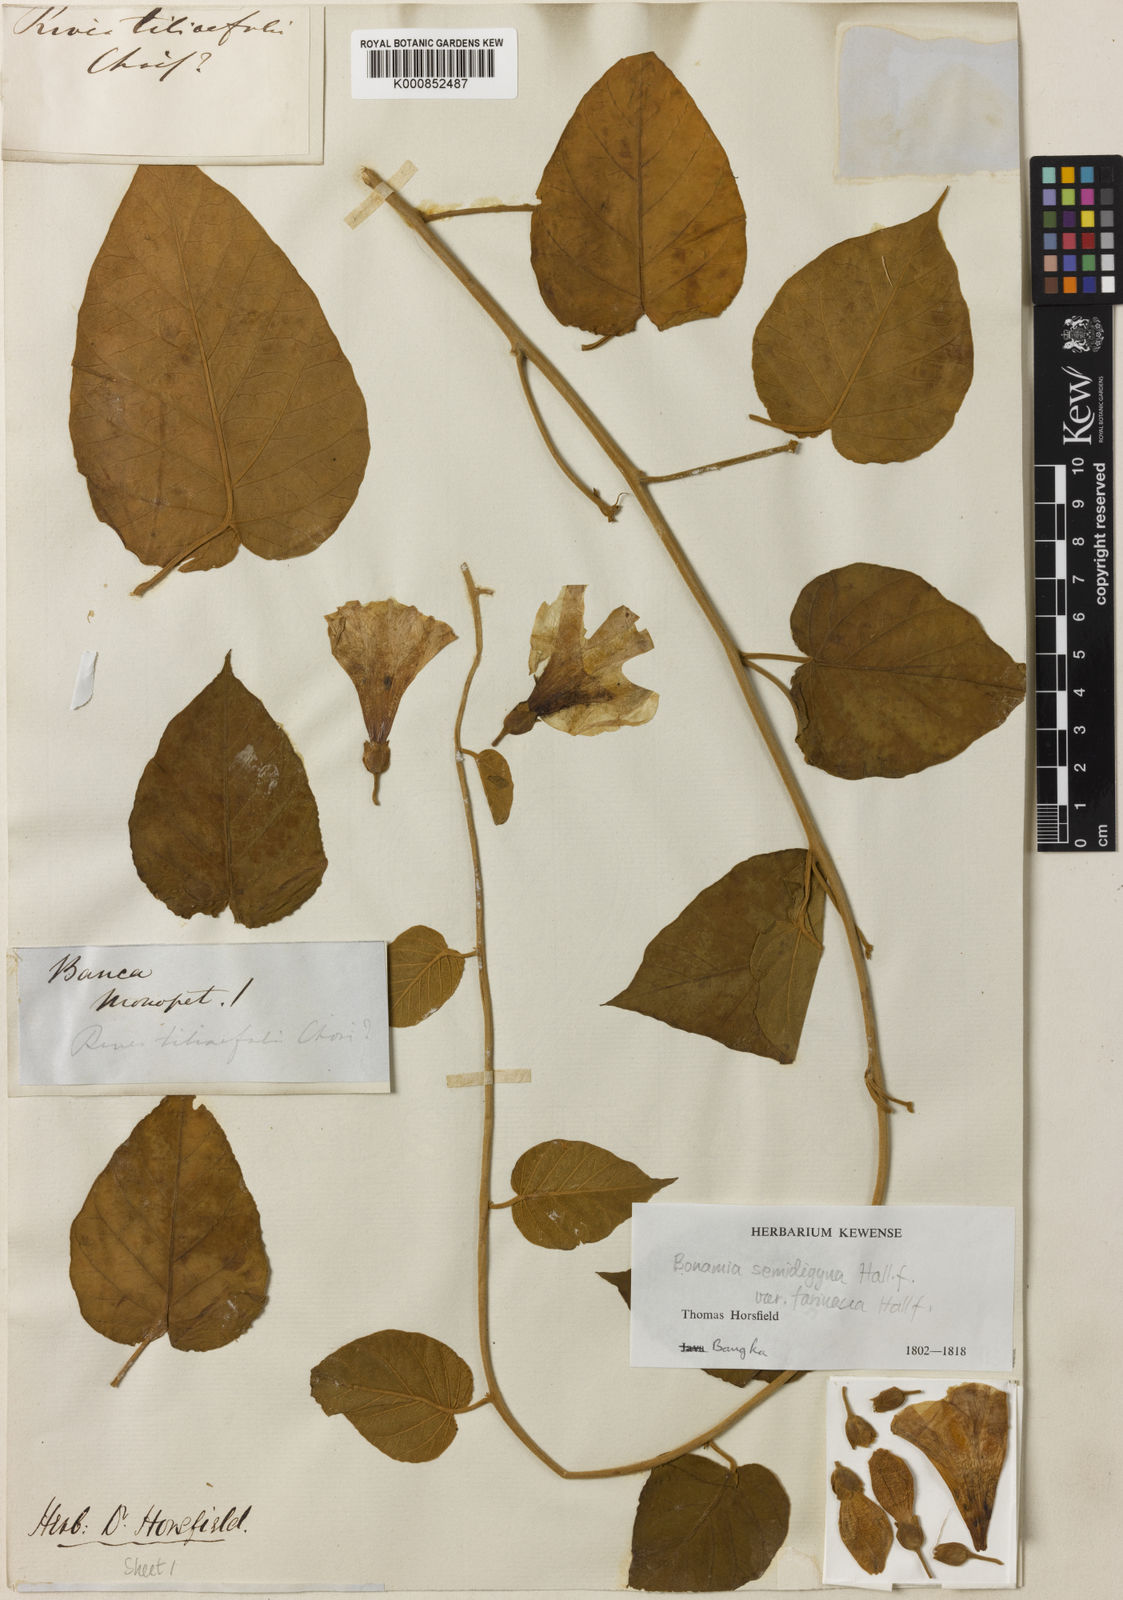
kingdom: Plantae
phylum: Tracheophyta
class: Magnoliopsida
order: Solanales
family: Convolvulaceae
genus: Bonamia
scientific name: Bonamia semidigyna
